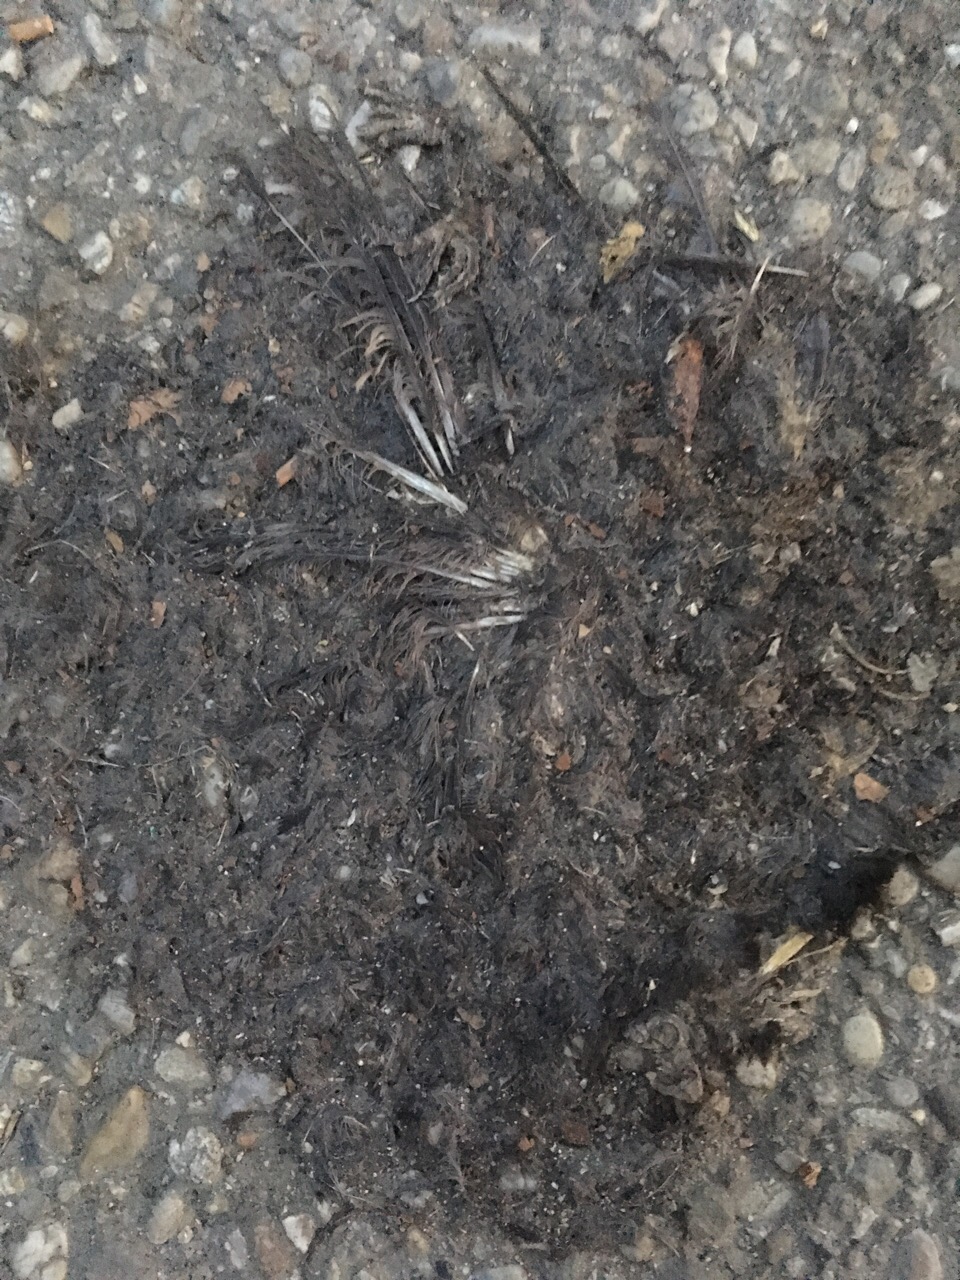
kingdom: Animalia
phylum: Chordata
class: Aves
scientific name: Aves
